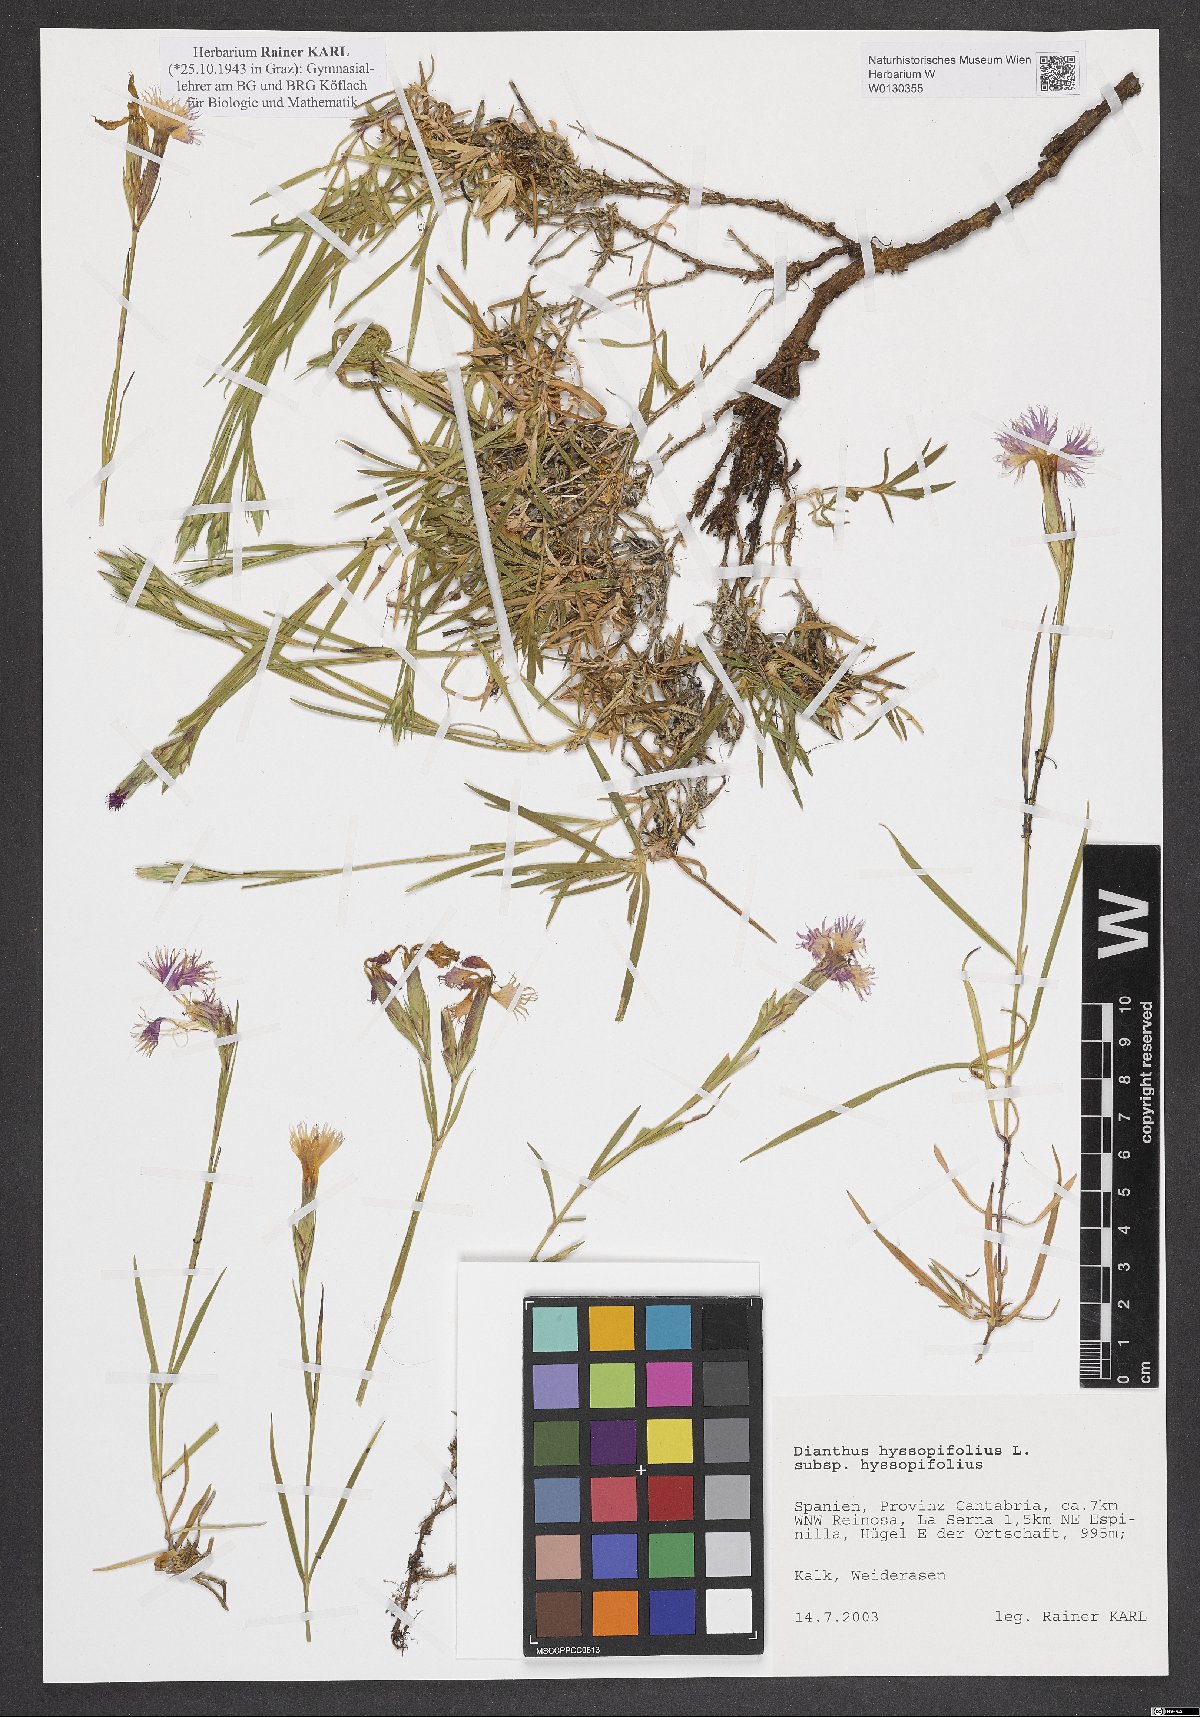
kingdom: Plantae
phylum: Tracheophyta
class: Magnoliopsida
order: Caryophyllales
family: Caryophyllaceae
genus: Dianthus
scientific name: Dianthus hyssopifolius
